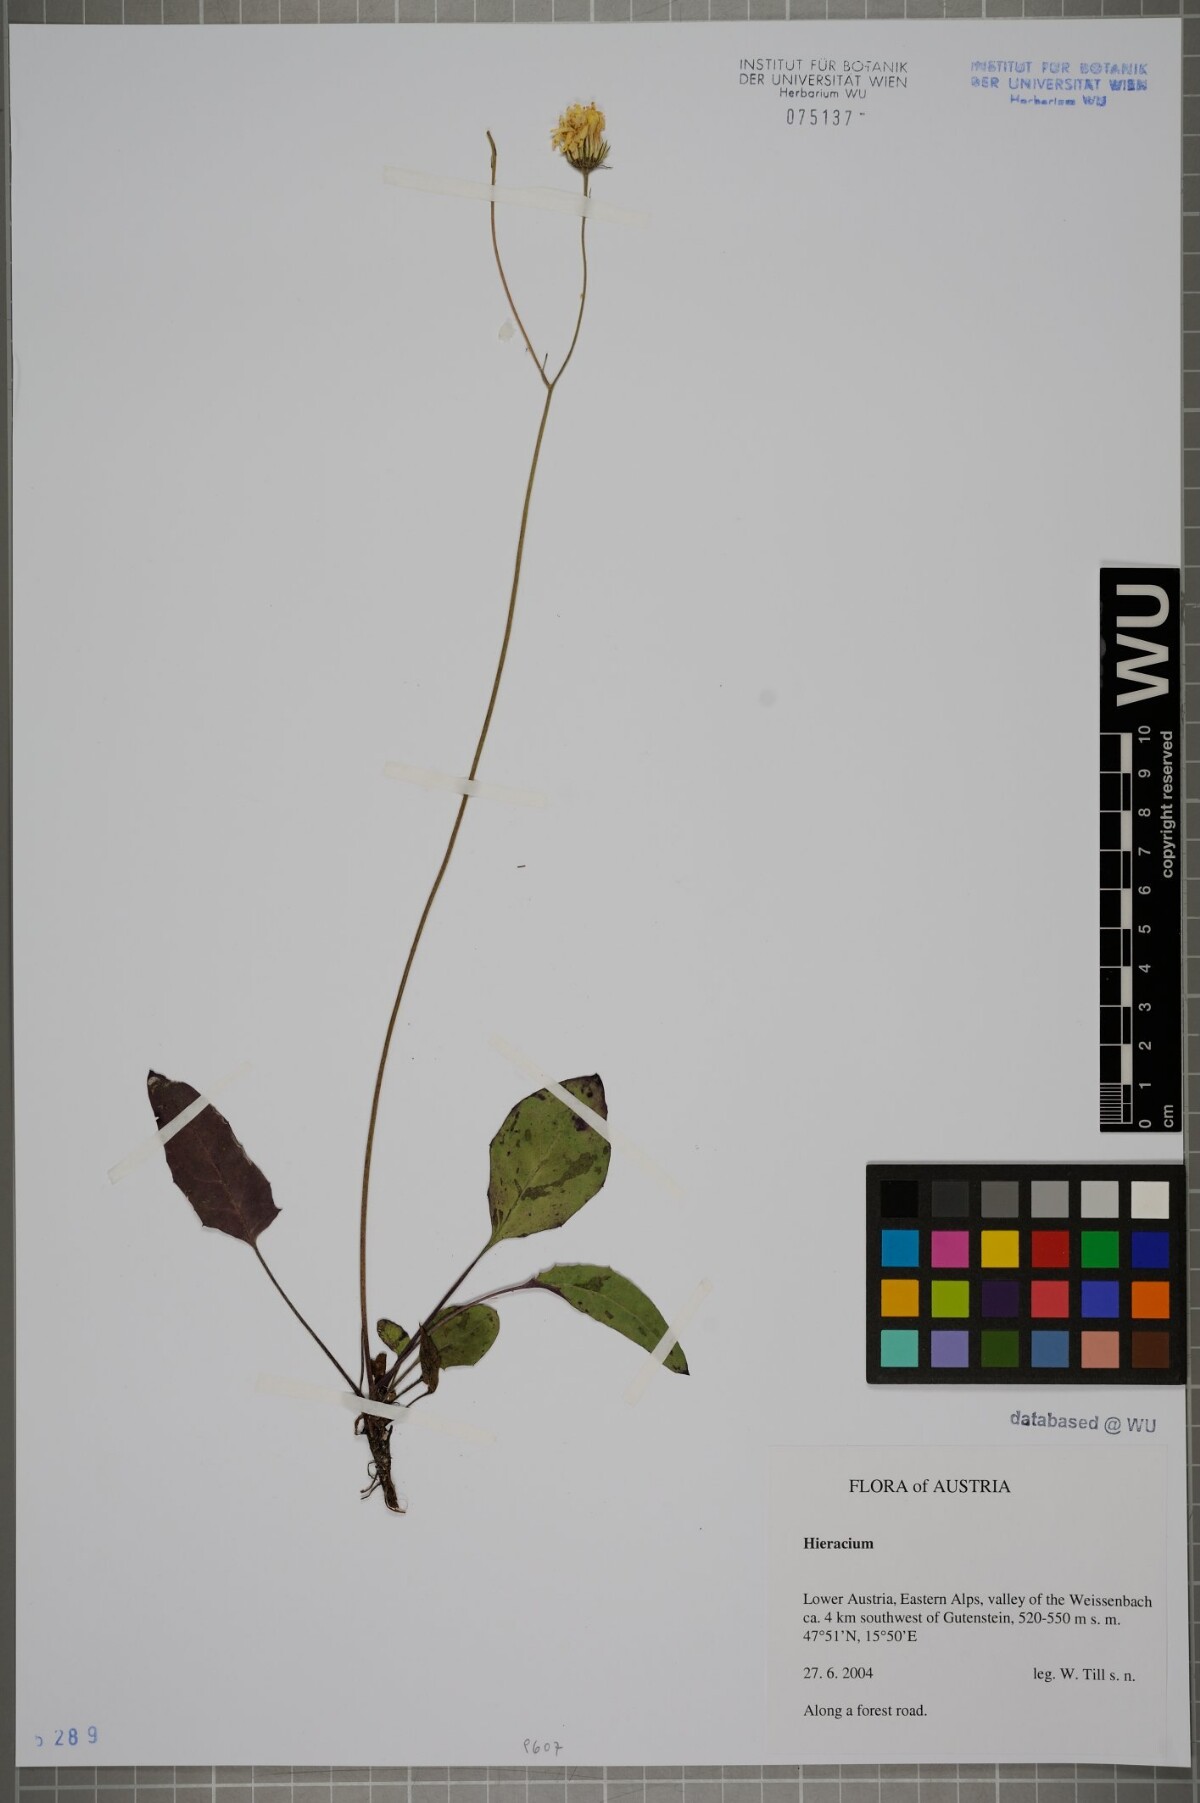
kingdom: Plantae
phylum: Tracheophyta
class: Magnoliopsida
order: Asterales
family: Asteraceae
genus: Hieracium
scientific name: Hieracium
